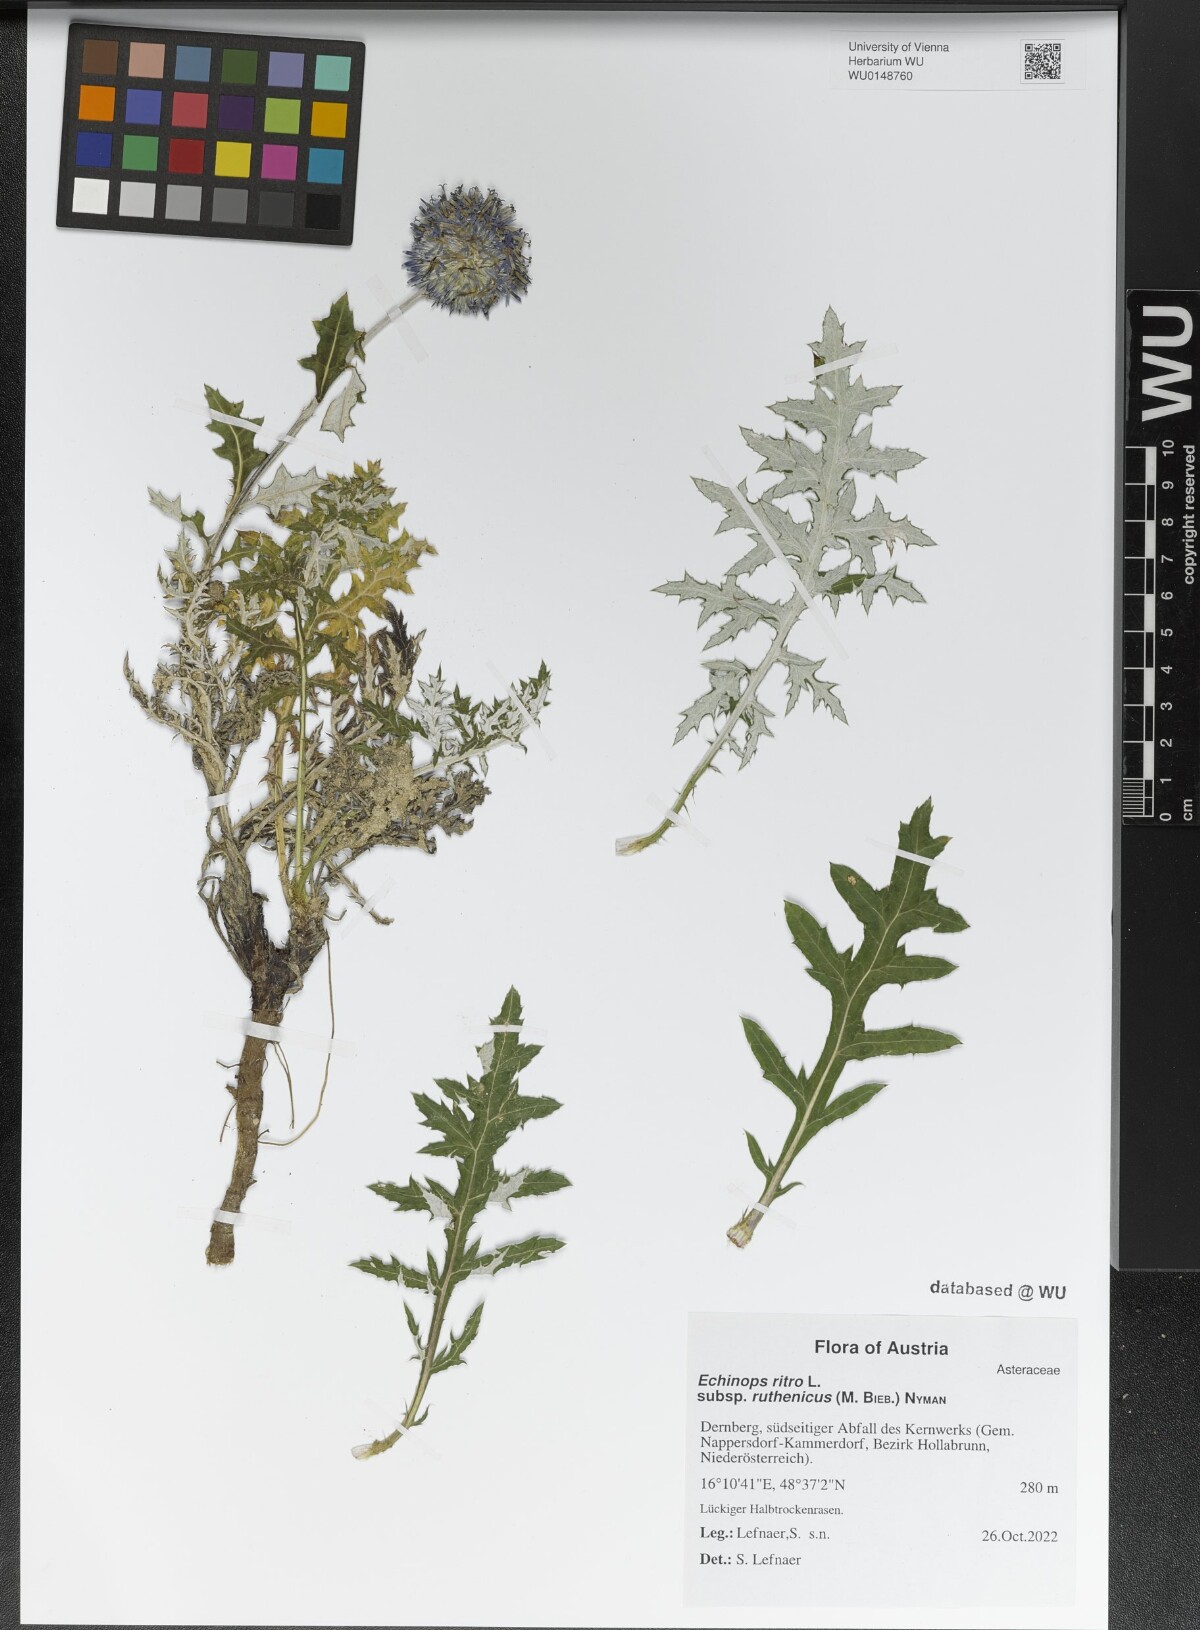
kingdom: Plantae
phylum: Tracheophyta
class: Magnoliopsida
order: Asterales
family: Asteraceae
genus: Echinops
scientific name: Echinops ritro
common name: Globe thistle
